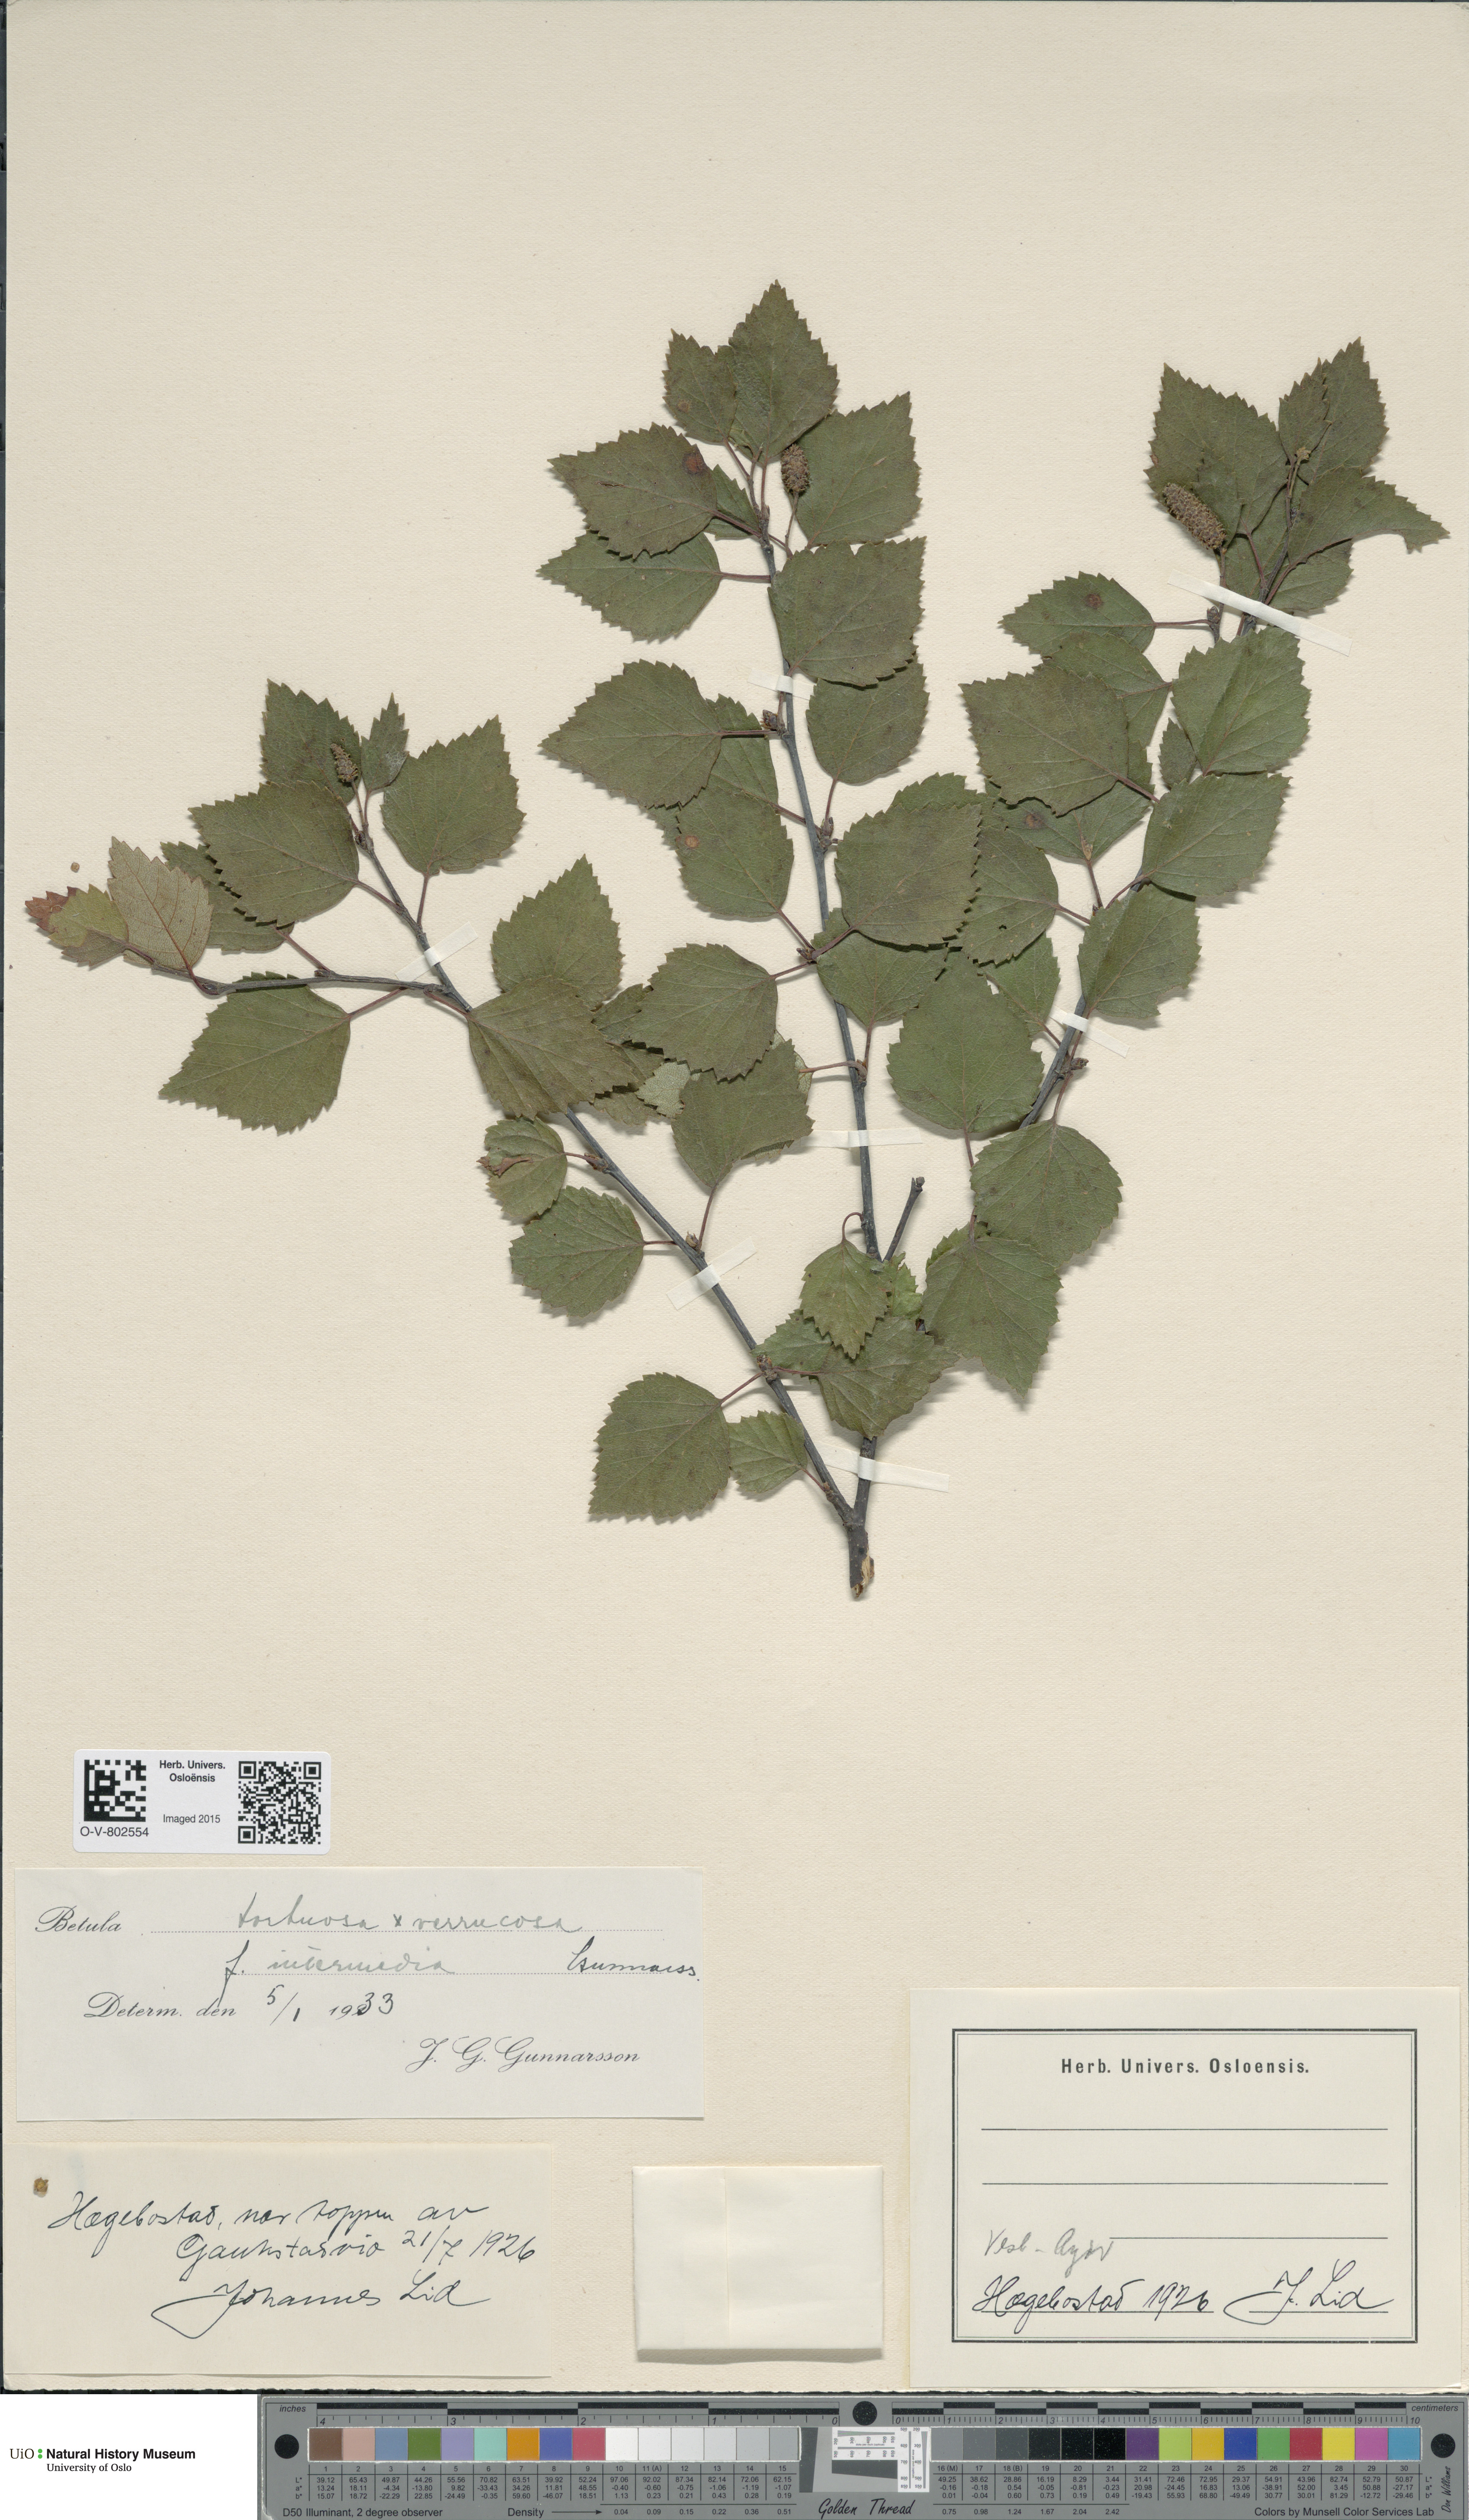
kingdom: Plantae
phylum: Tracheophyta
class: Magnoliopsida
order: Fagales
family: Betulaceae
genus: Betula
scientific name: Betula pubescens
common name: Downy birch
